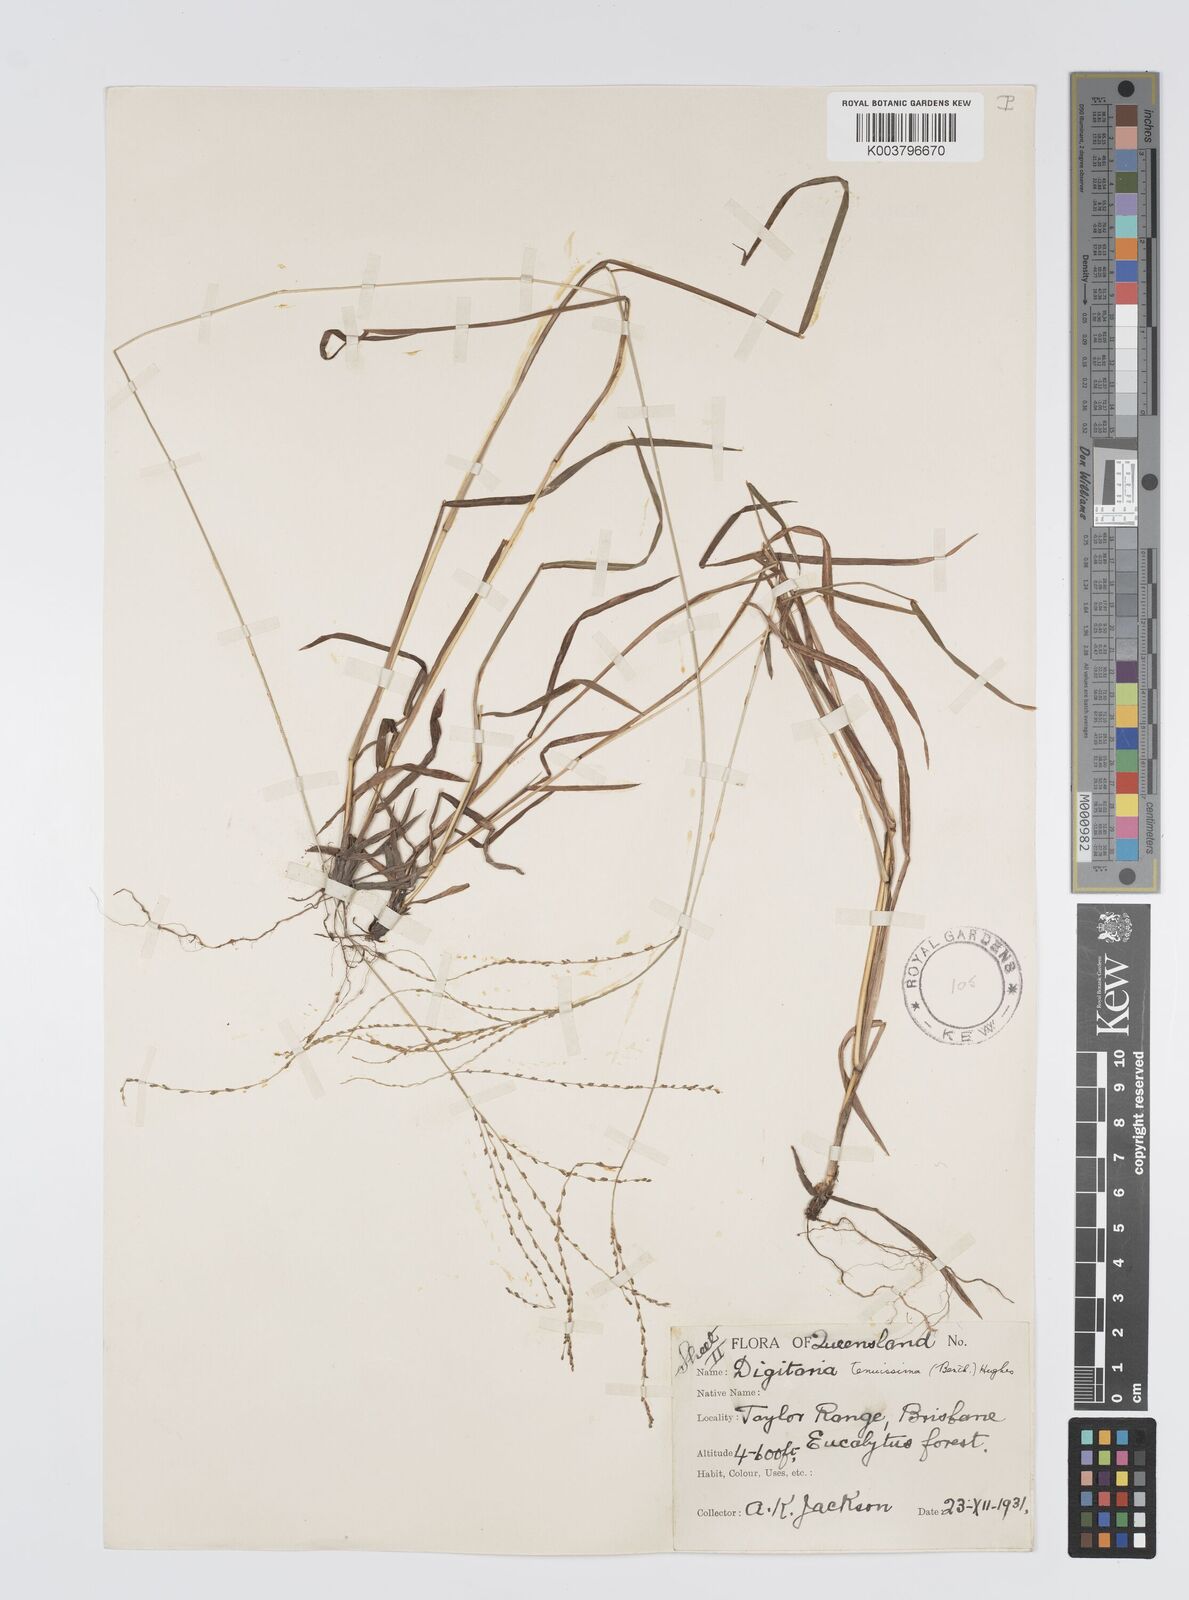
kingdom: Plantae
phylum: Tracheophyta
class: Liliopsida
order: Poales
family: Poaceae
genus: Digitaria
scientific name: Digitaria ramularis
